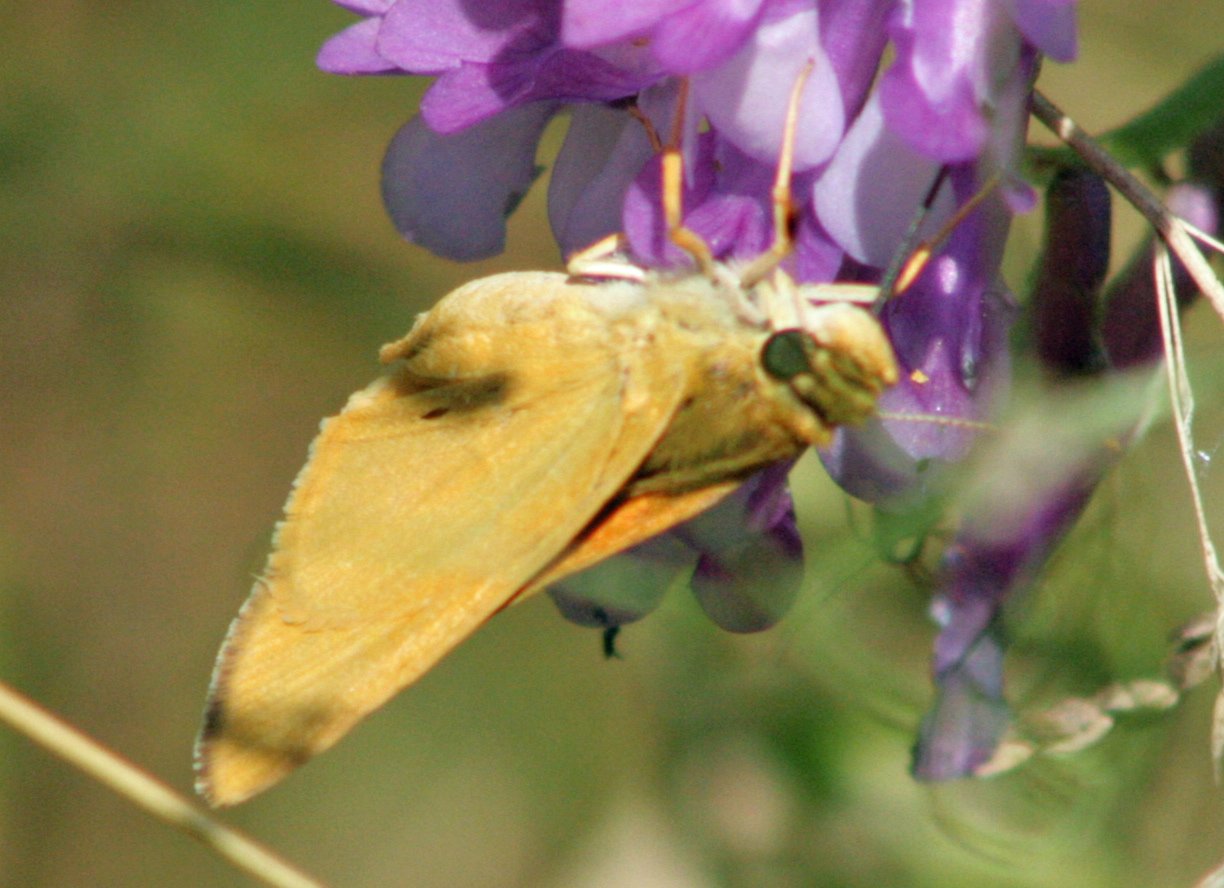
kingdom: Animalia
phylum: Arthropoda
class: Insecta
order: Lepidoptera
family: Hesperiidae
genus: Atrytone
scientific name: Atrytone delaware
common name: Delaware Skipper
